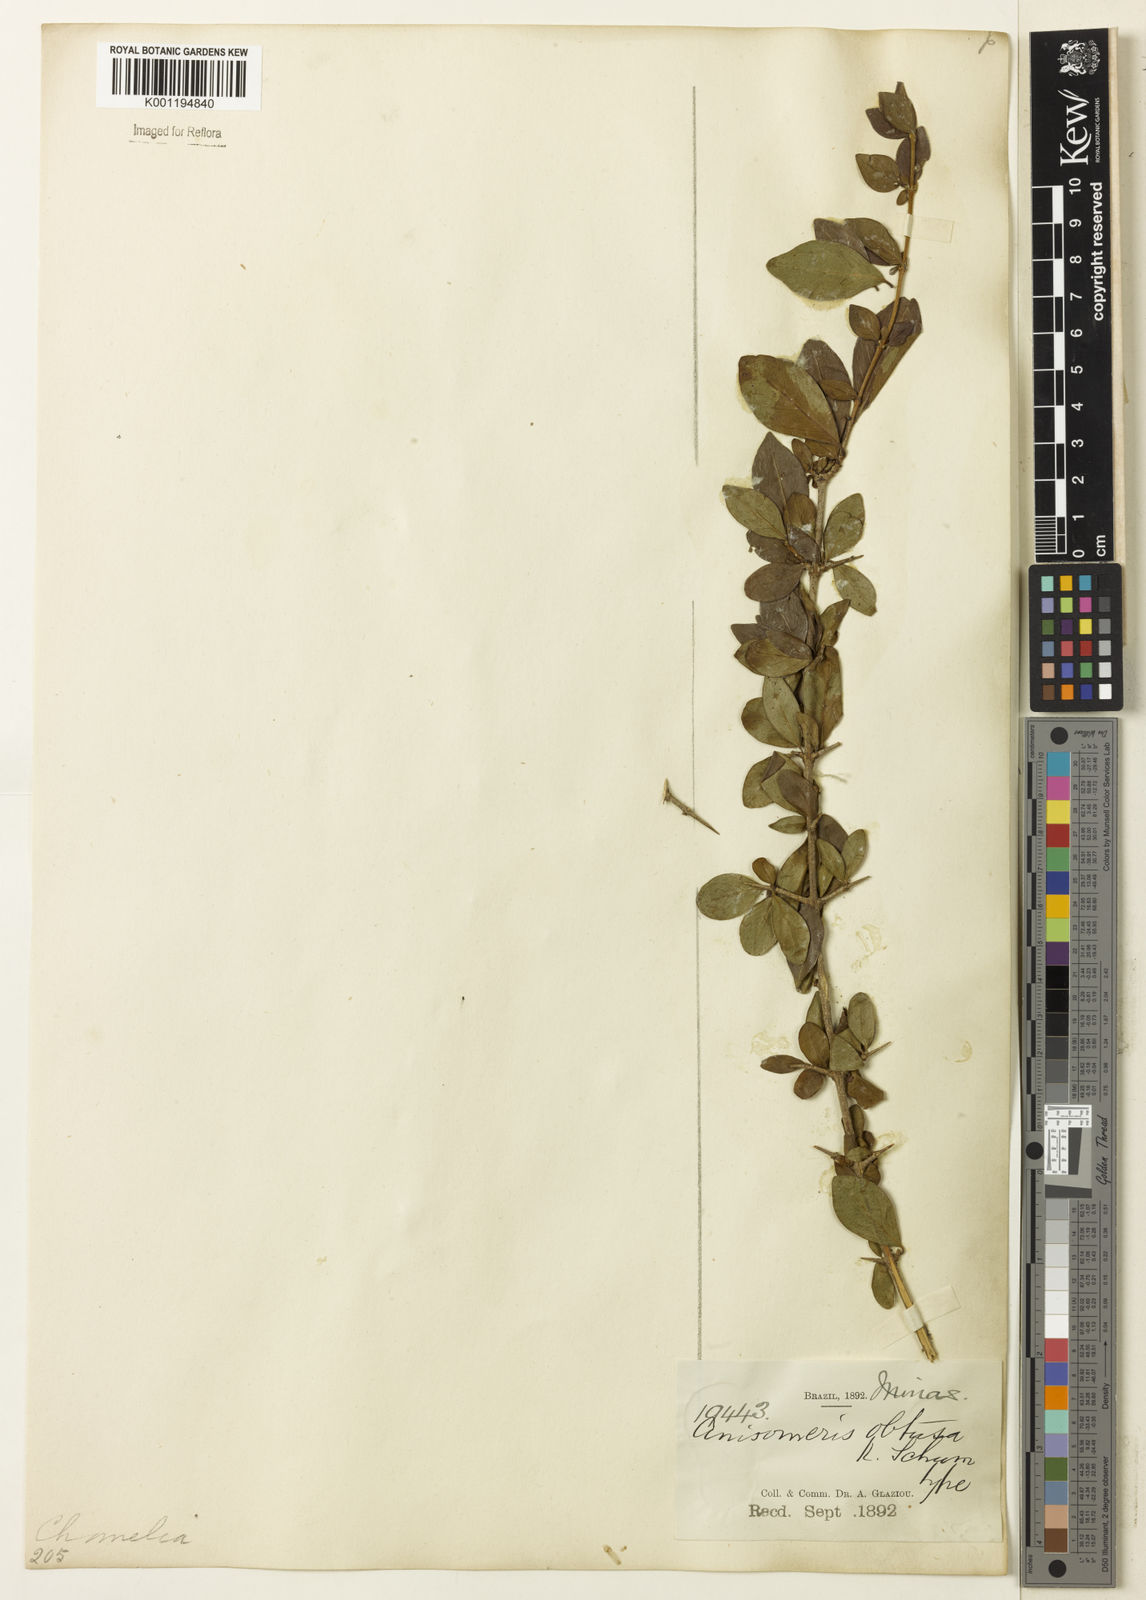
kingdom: Plantae
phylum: Tracheophyta
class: Magnoliopsida
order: Gentianales
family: Rubiaceae
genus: Chomelia
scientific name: Chomelia obtusa
